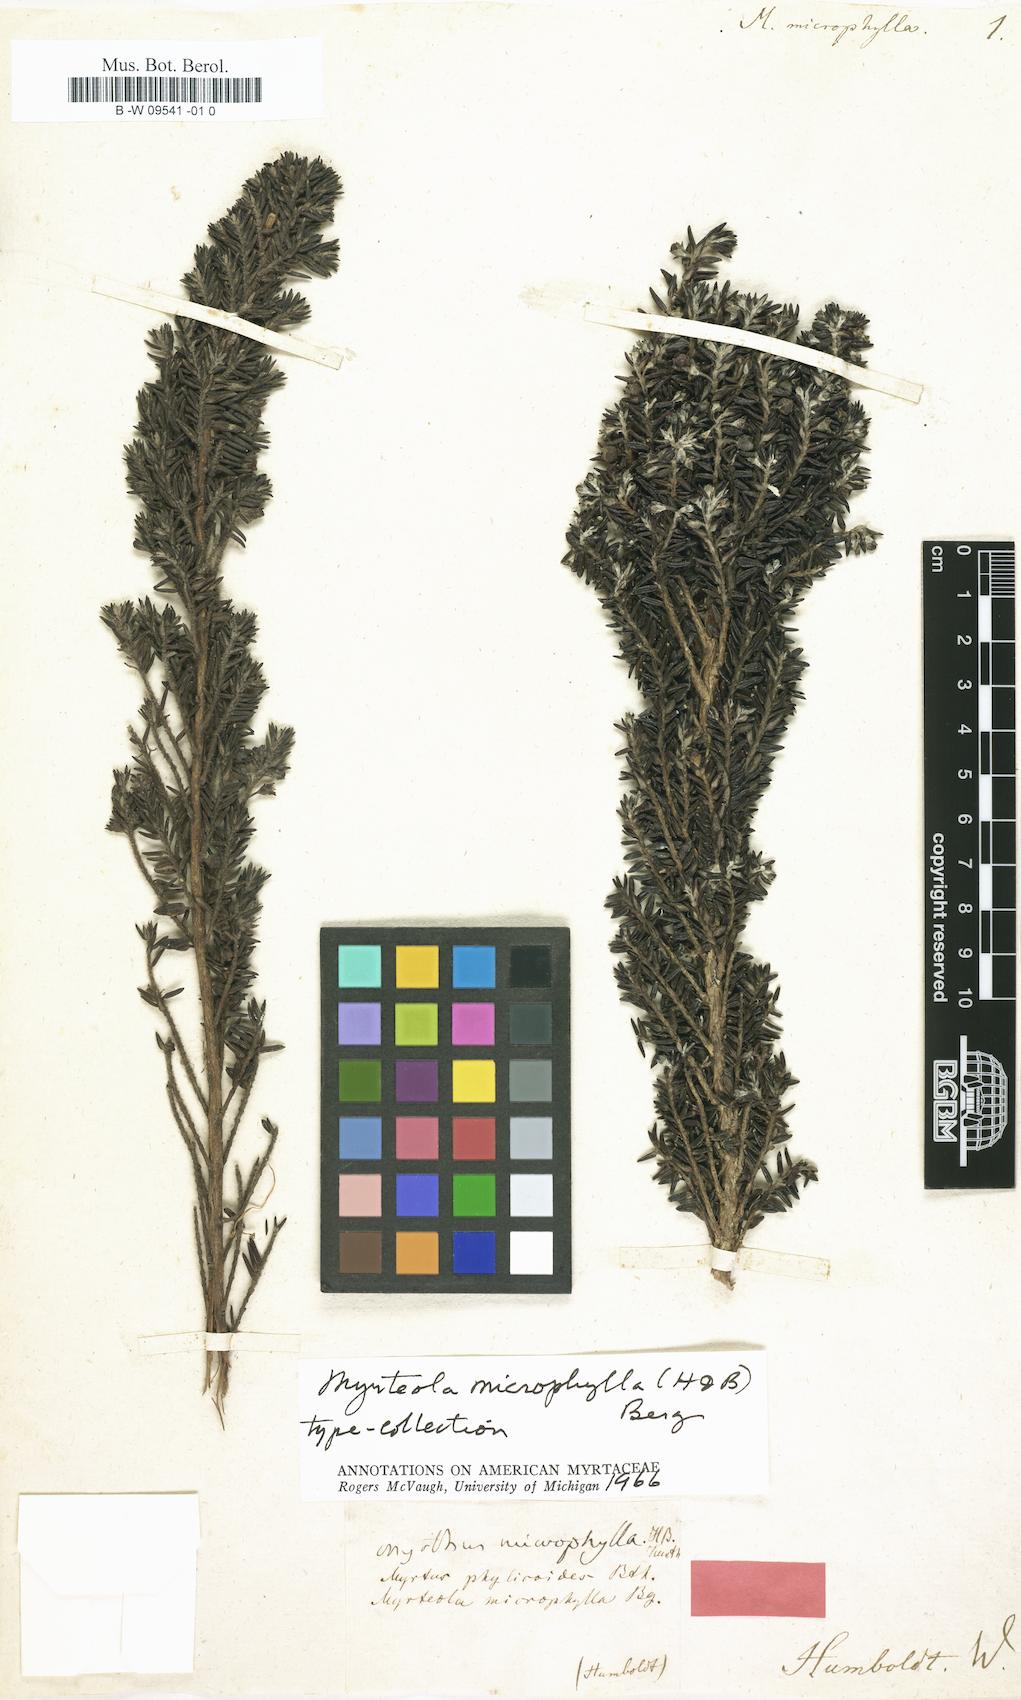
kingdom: Plantae
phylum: Tracheophyta
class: Magnoliopsida
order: Myrtales
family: Myrtaceae
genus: Myrteola
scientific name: Myrteola phylicoides
